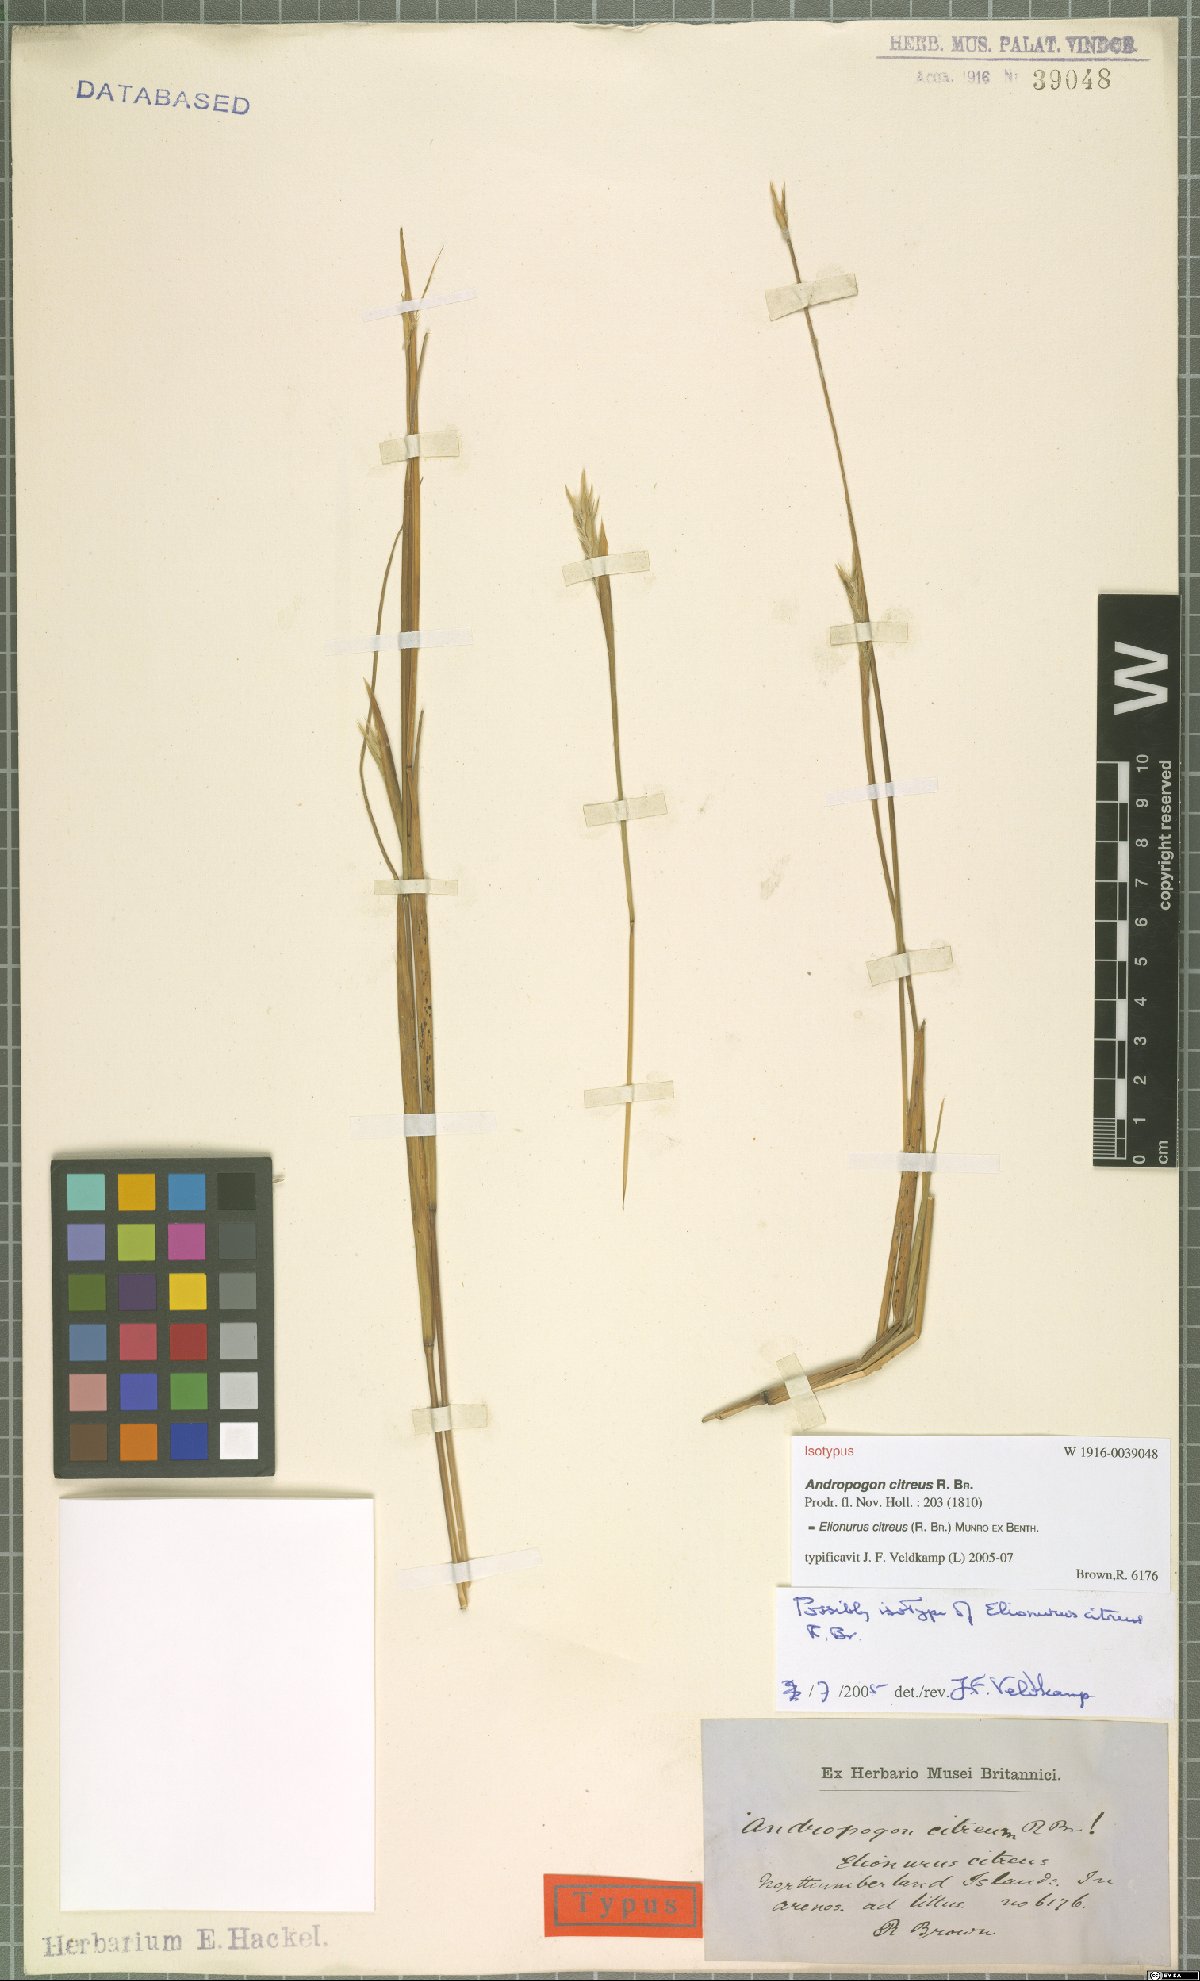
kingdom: Plantae
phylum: Tracheophyta
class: Liliopsida
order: Poales
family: Poaceae
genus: Elionurus
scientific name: Elionurus citreus
